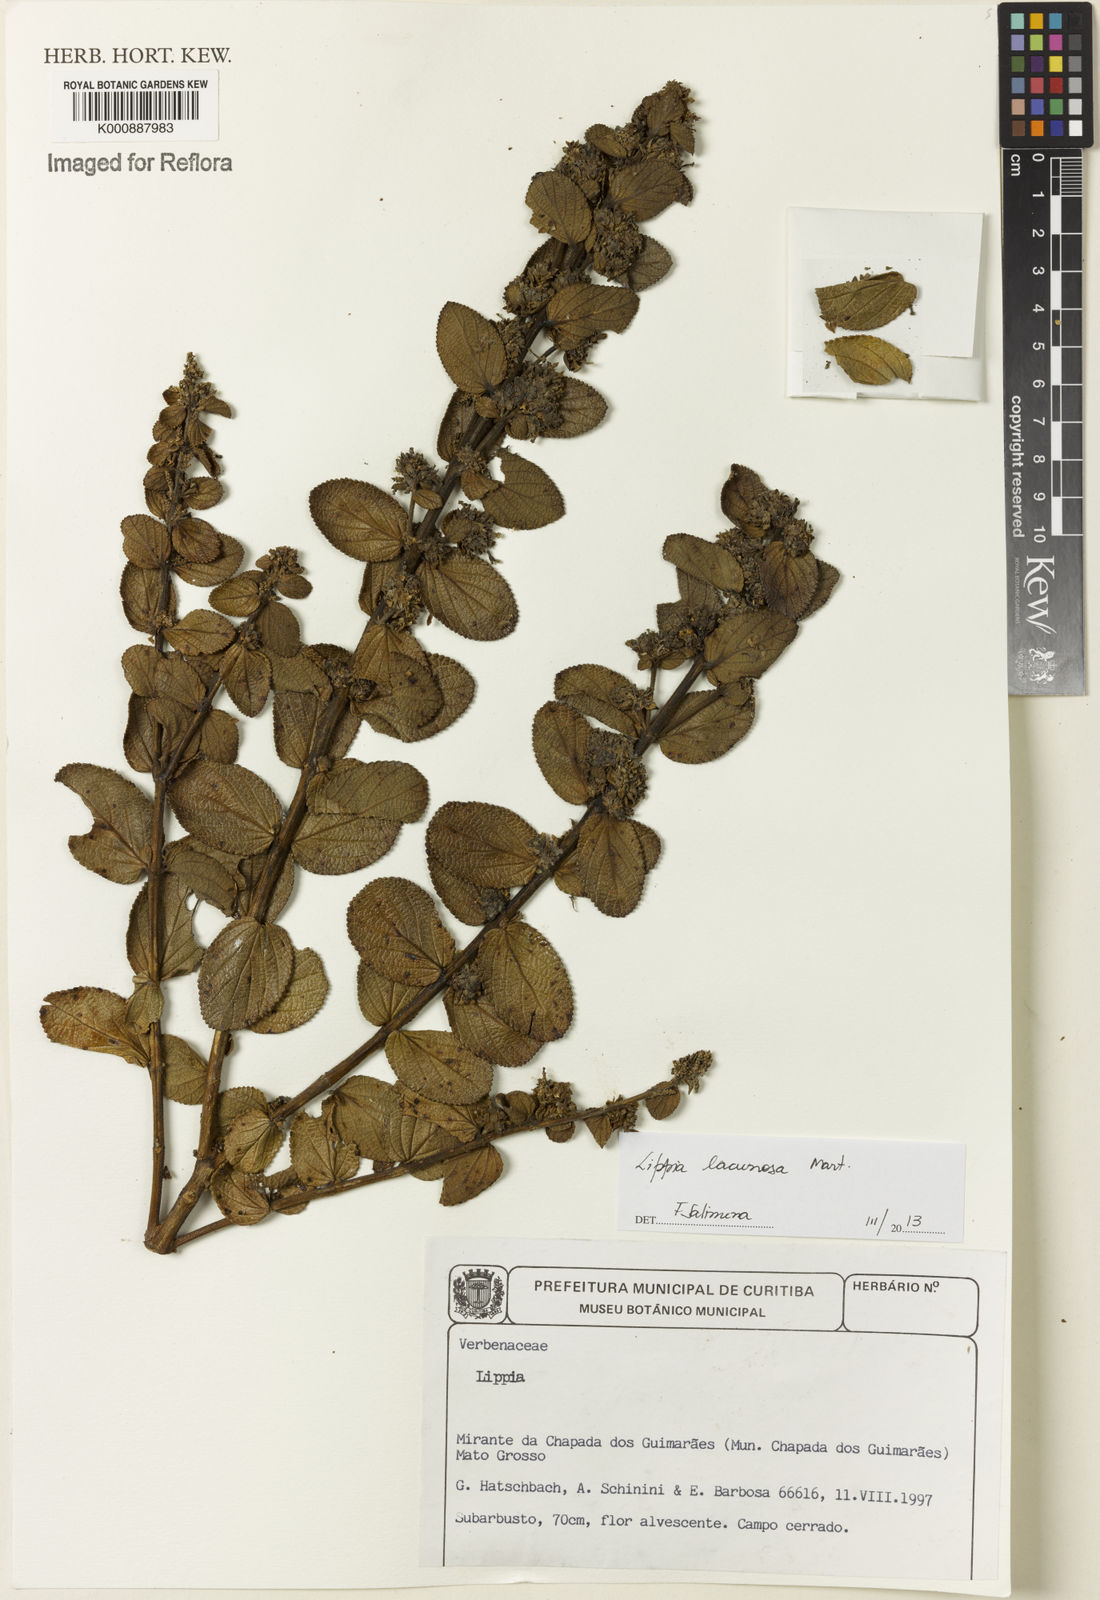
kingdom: Plantae
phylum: Tracheophyta
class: Magnoliopsida
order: Lamiales
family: Verbenaceae
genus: Lippia
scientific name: Lippia lacunosa
